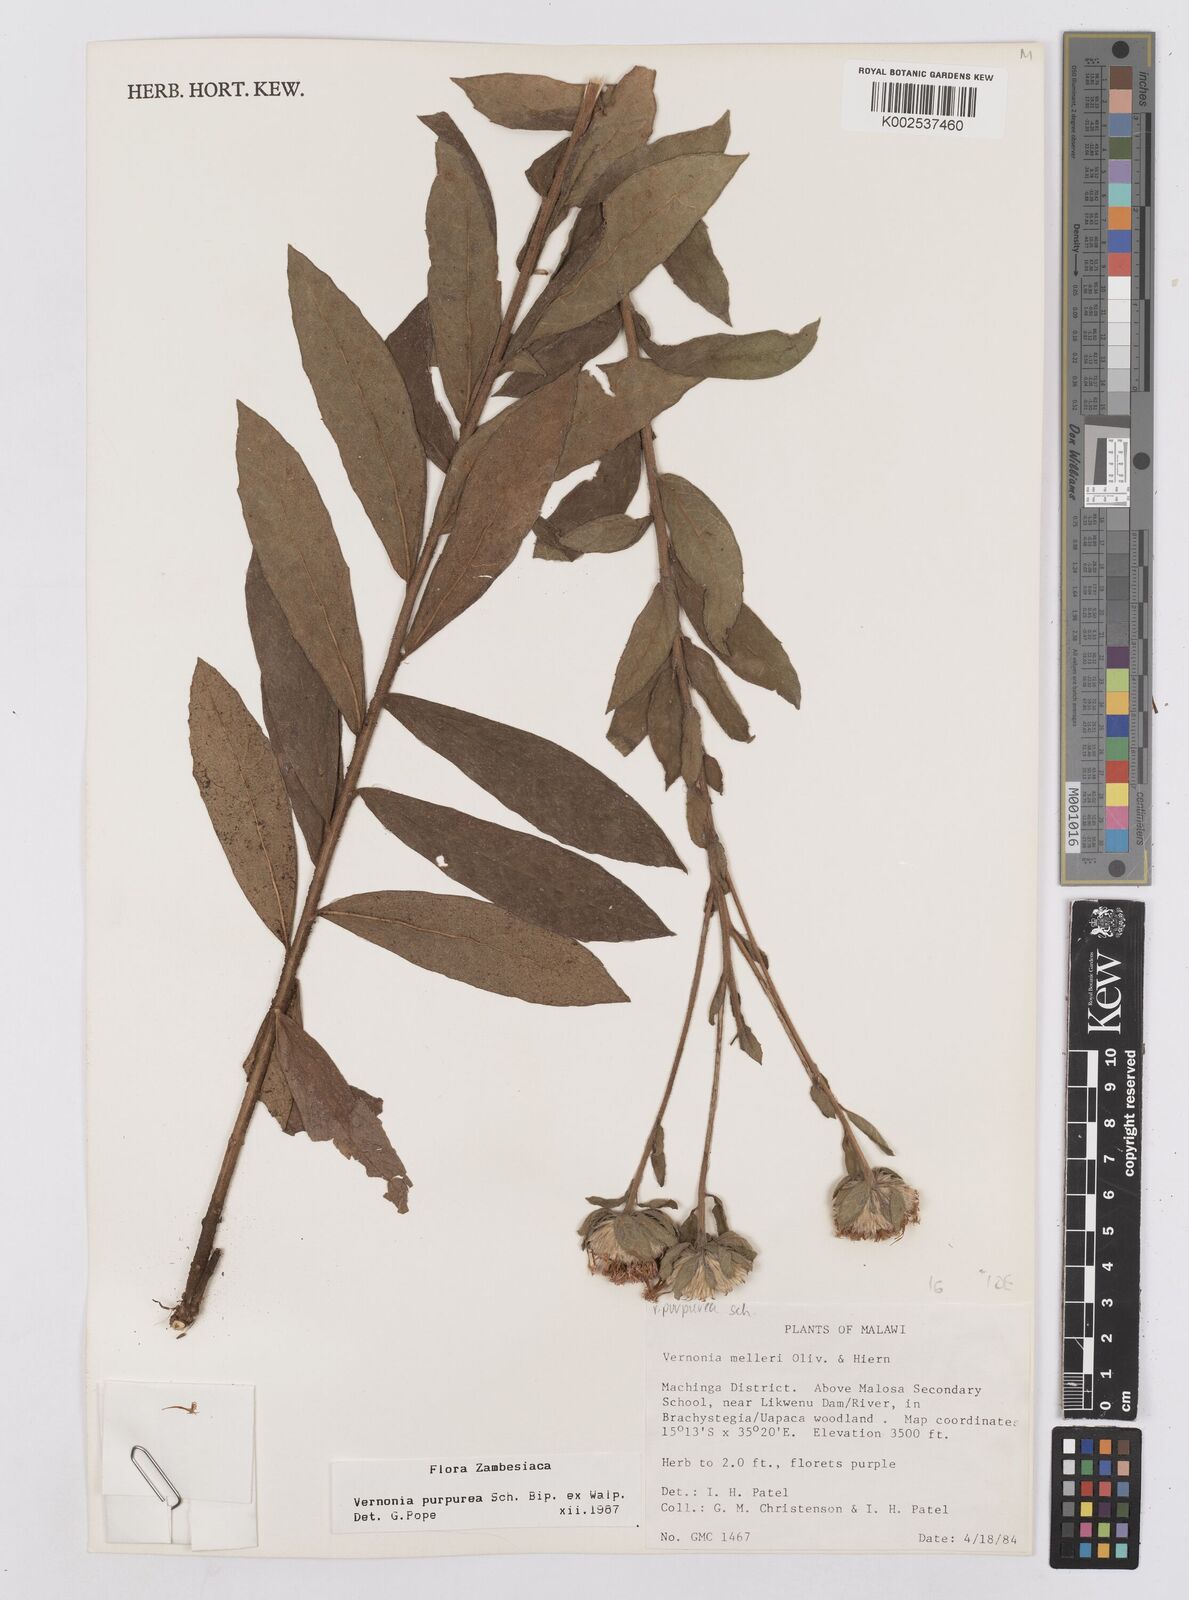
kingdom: Plantae
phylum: Tracheophyta
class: Magnoliopsida
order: Asterales
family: Asteraceae
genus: Nothovernonia
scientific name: Nothovernonia purpurea
